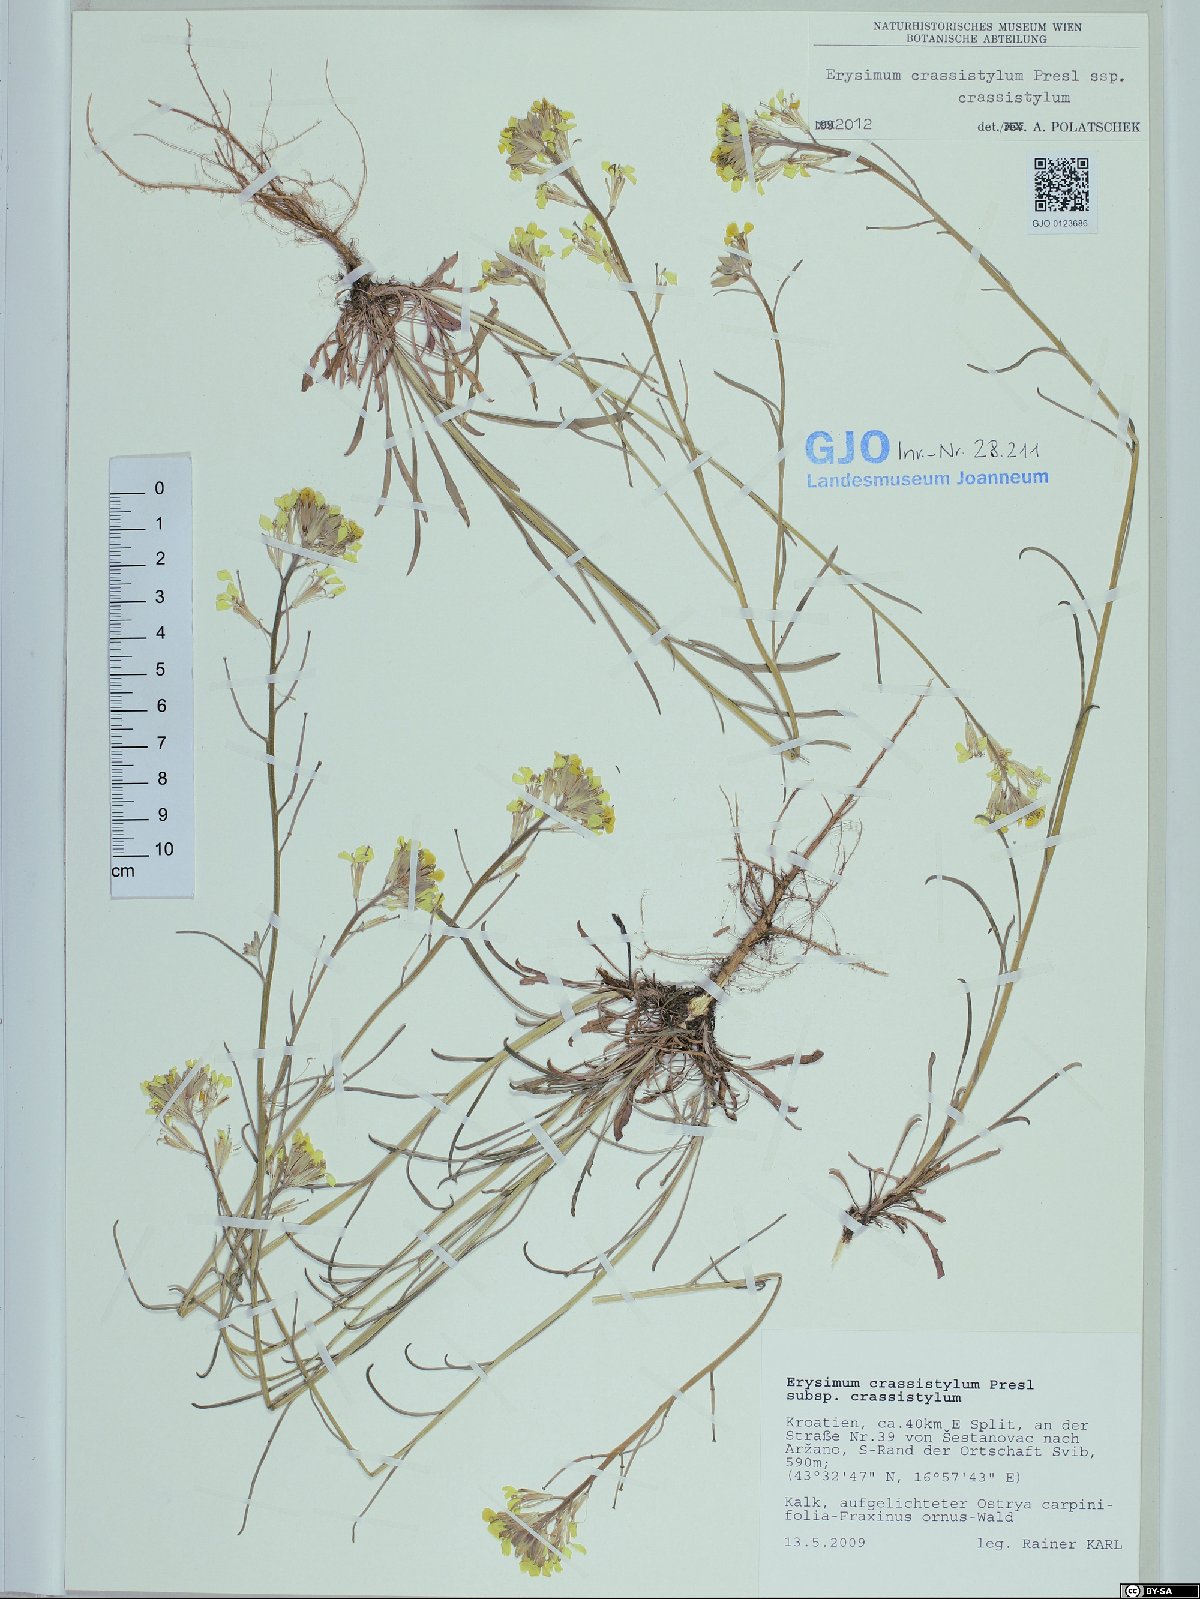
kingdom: Plantae
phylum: Tracheophyta
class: Magnoliopsida
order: Brassicales
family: Brassicaceae
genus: Erysimum
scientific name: Erysimum crassistylum
